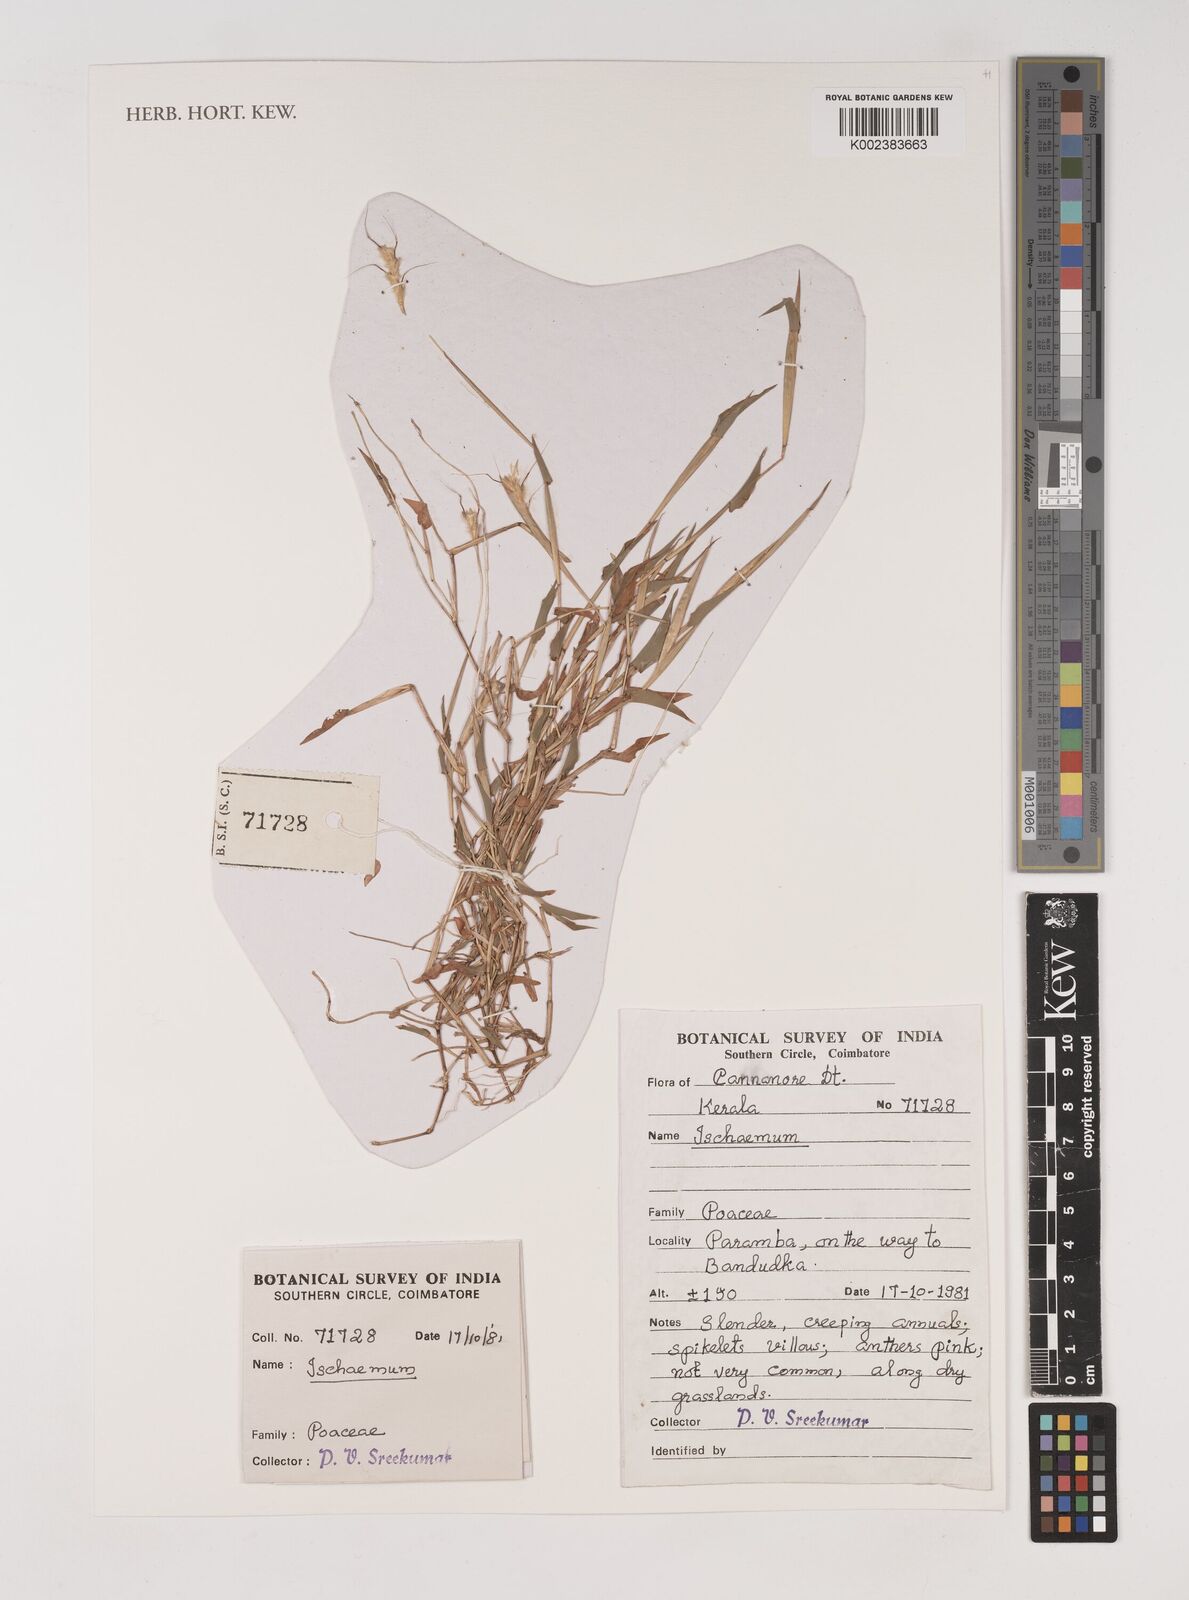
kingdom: Plantae
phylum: Tracheophyta
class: Liliopsida
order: Poales
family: Poaceae
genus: Ischaemum
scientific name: Ischaemum
